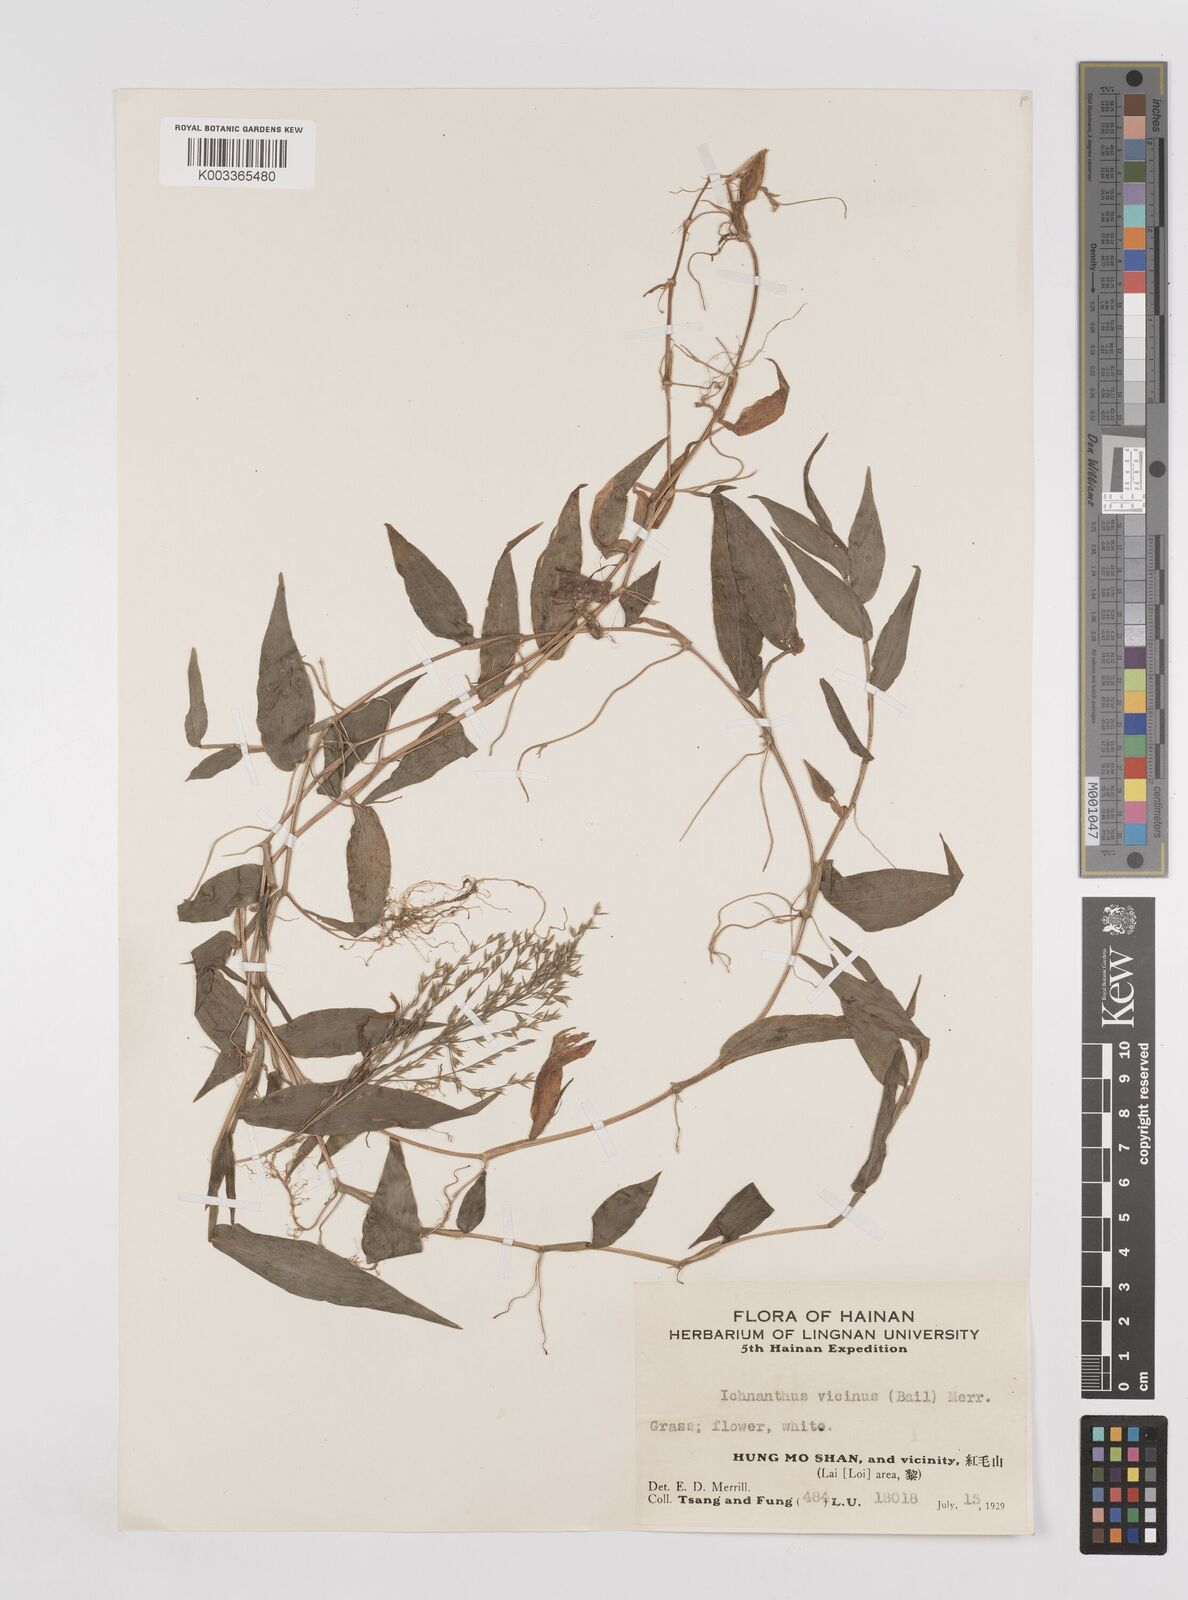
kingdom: Plantae
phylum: Tracheophyta
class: Liliopsida
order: Poales
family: Poaceae
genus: Ichnanthus
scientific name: Ichnanthus pallens
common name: Water grass
